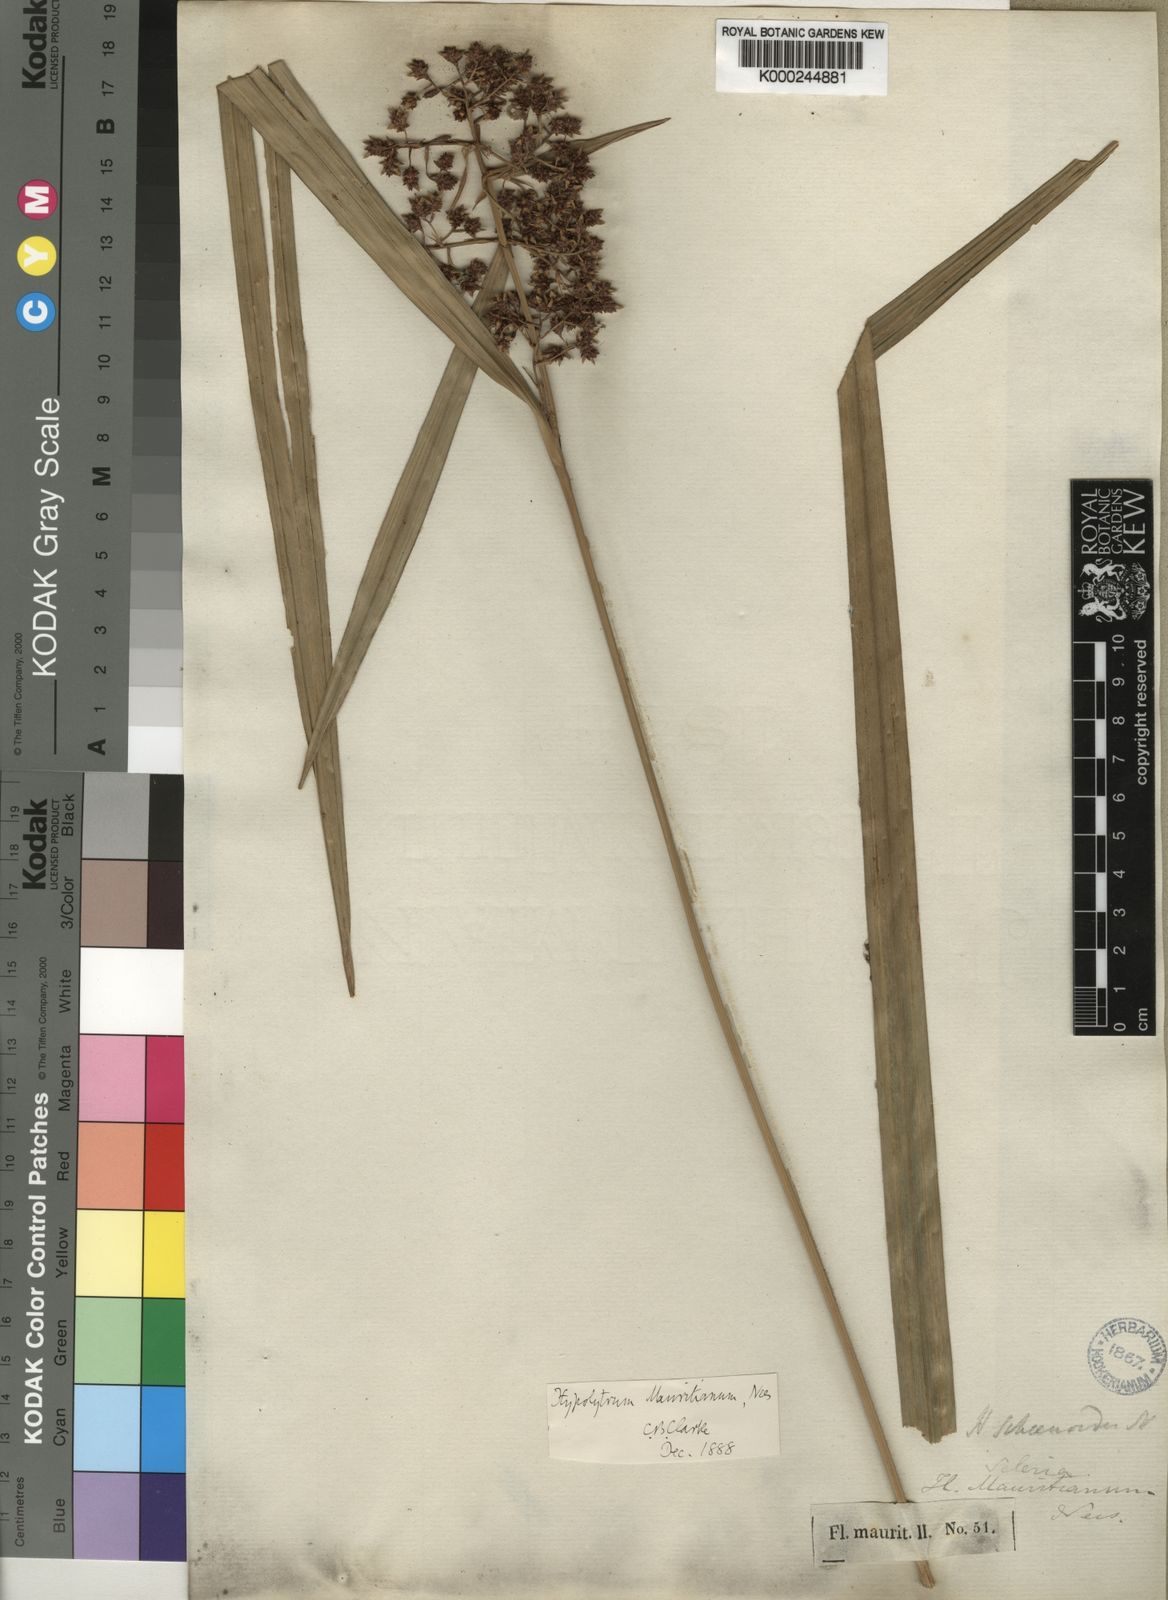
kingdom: Plantae
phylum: Tracheophyta
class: Liliopsida
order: Poales
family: Cyperaceae
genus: Hypolytrum
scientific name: Hypolytrum mauritianum
